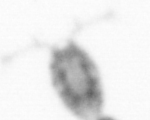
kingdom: Animalia
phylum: Arthropoda
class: Copepoda
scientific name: Copepoda
